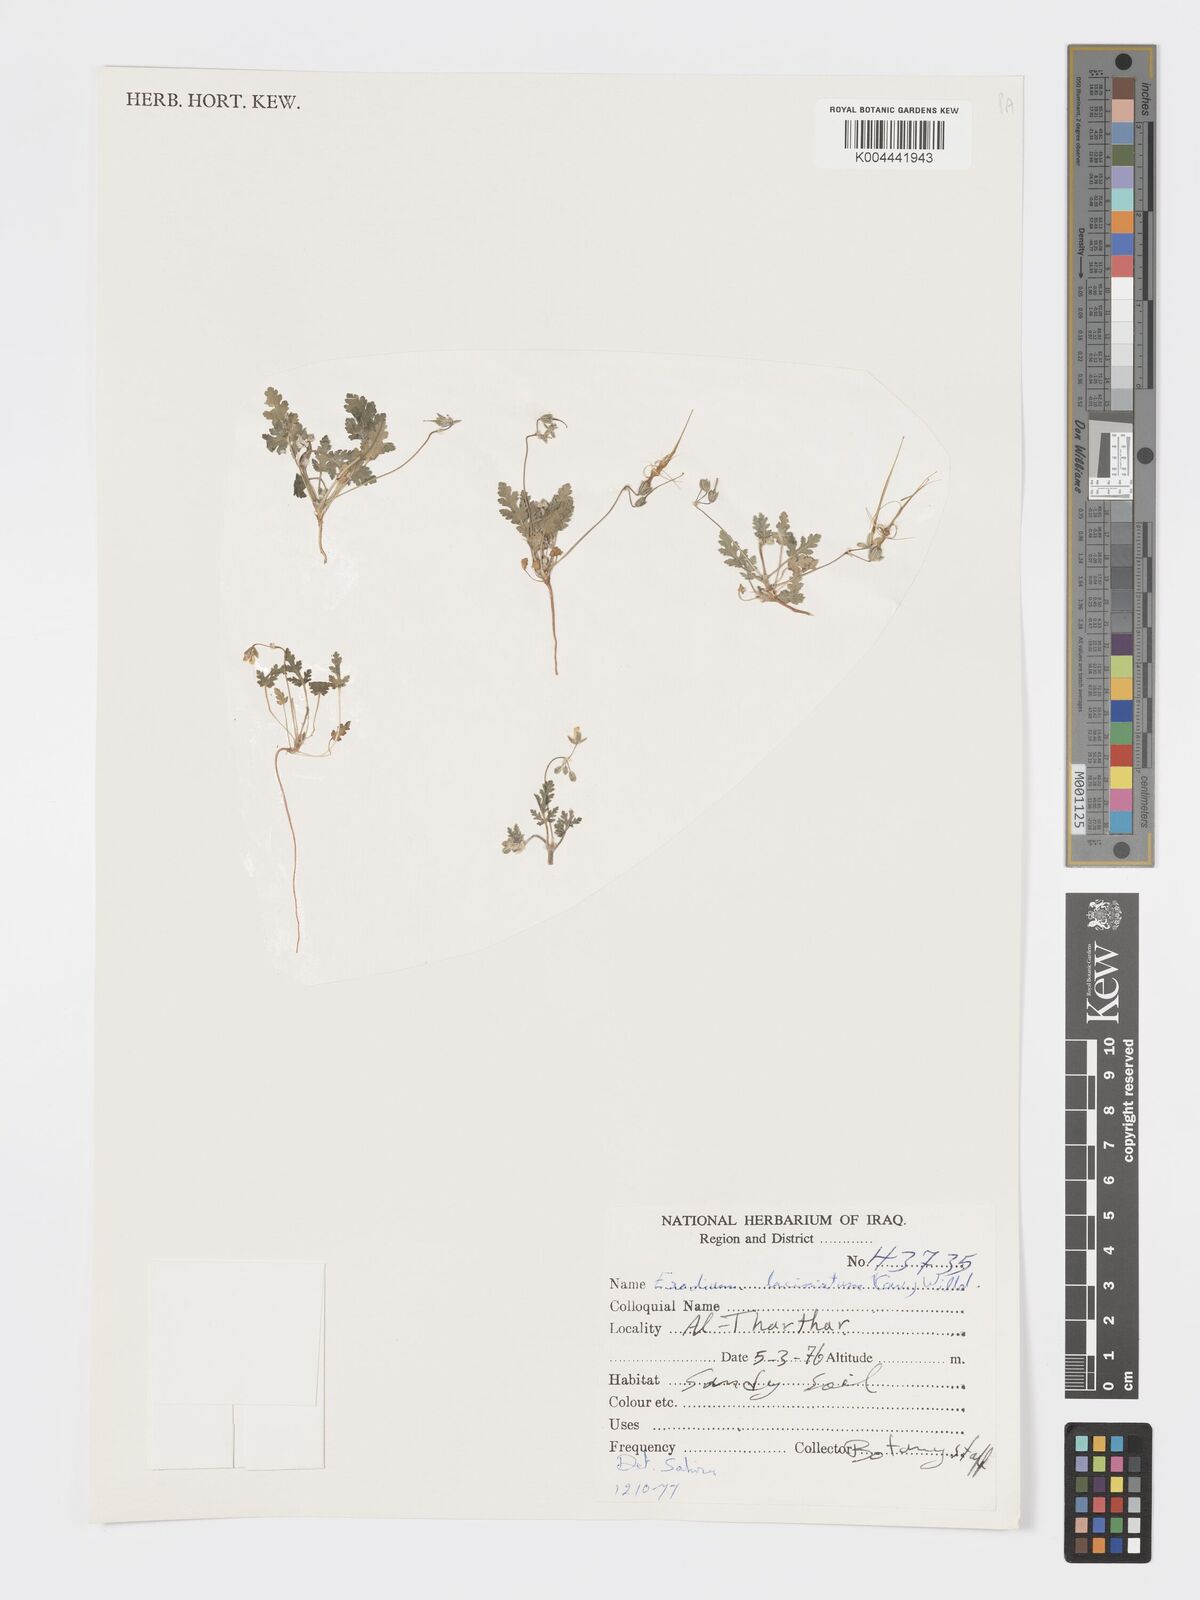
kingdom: Plantae
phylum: Tracheophyta
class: Magnoliopsida
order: Geraniales
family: Geraniaceae
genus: Erodium
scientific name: Erodium laciniatum
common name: Cutleaf stork's bill
